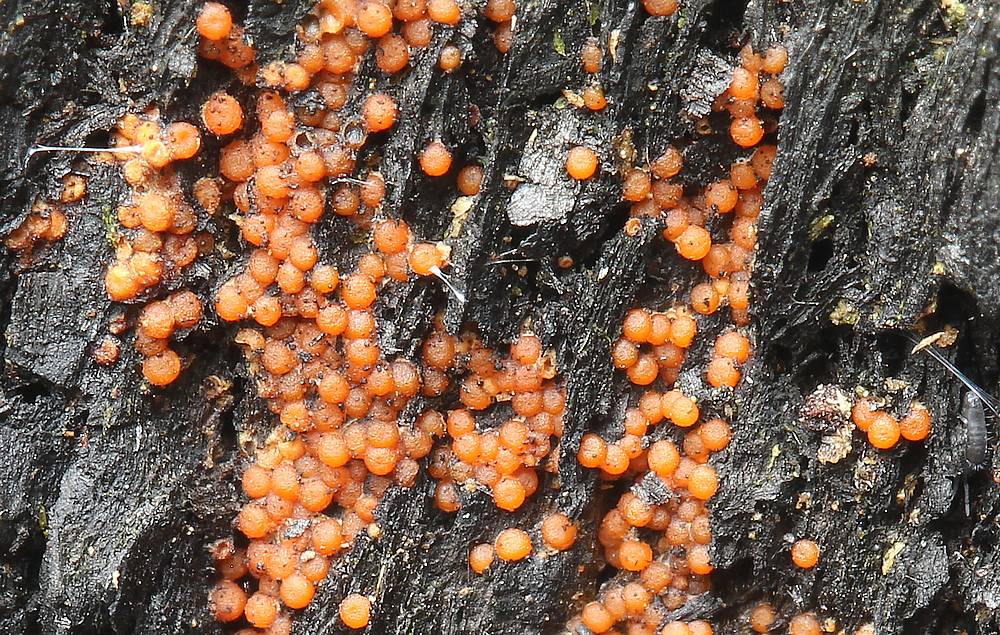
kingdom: Fungi
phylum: Ascomycota
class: Sordariomycetes
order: Hypocreales
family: Nectriaceae
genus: Hydropisphaera
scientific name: Hydropisphaera peziza
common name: skålformet gyldenkerne
